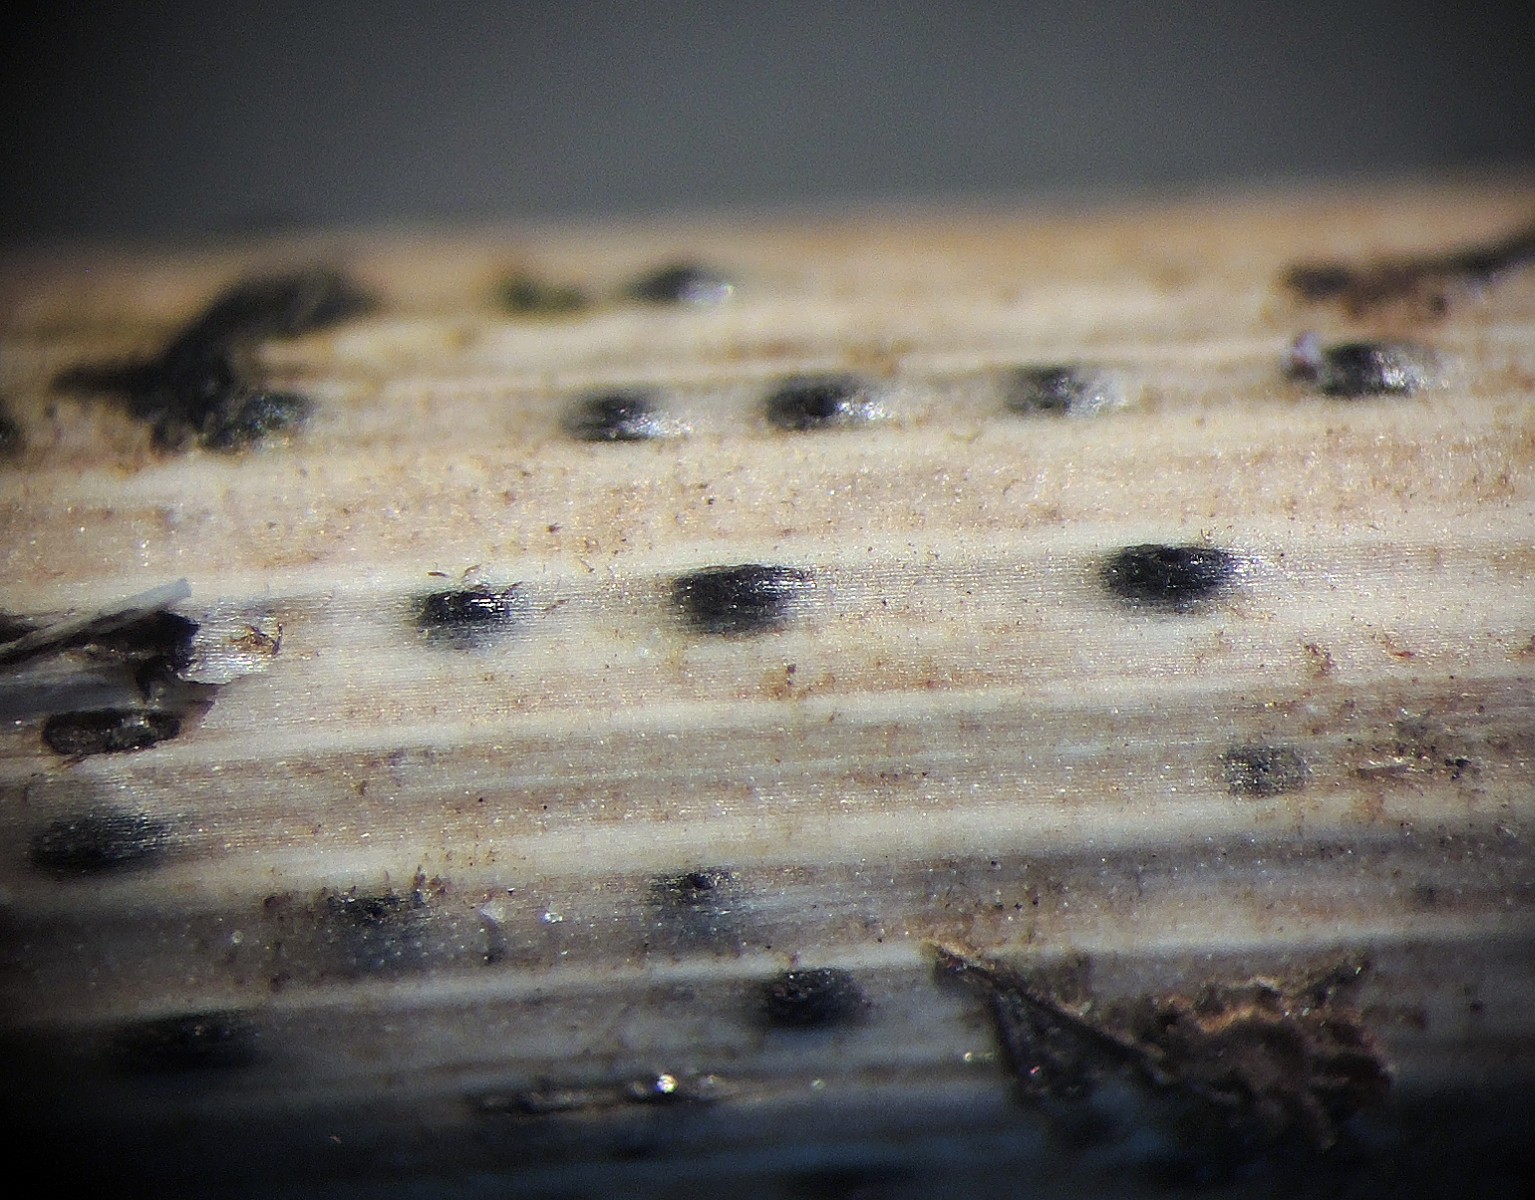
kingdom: Fungi
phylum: Ascomycota
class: Dothideomycetes
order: Pleosporales
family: Leptosphaeriaceae
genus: Leptosphaeria
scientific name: Leptosphaeria culmifraga
